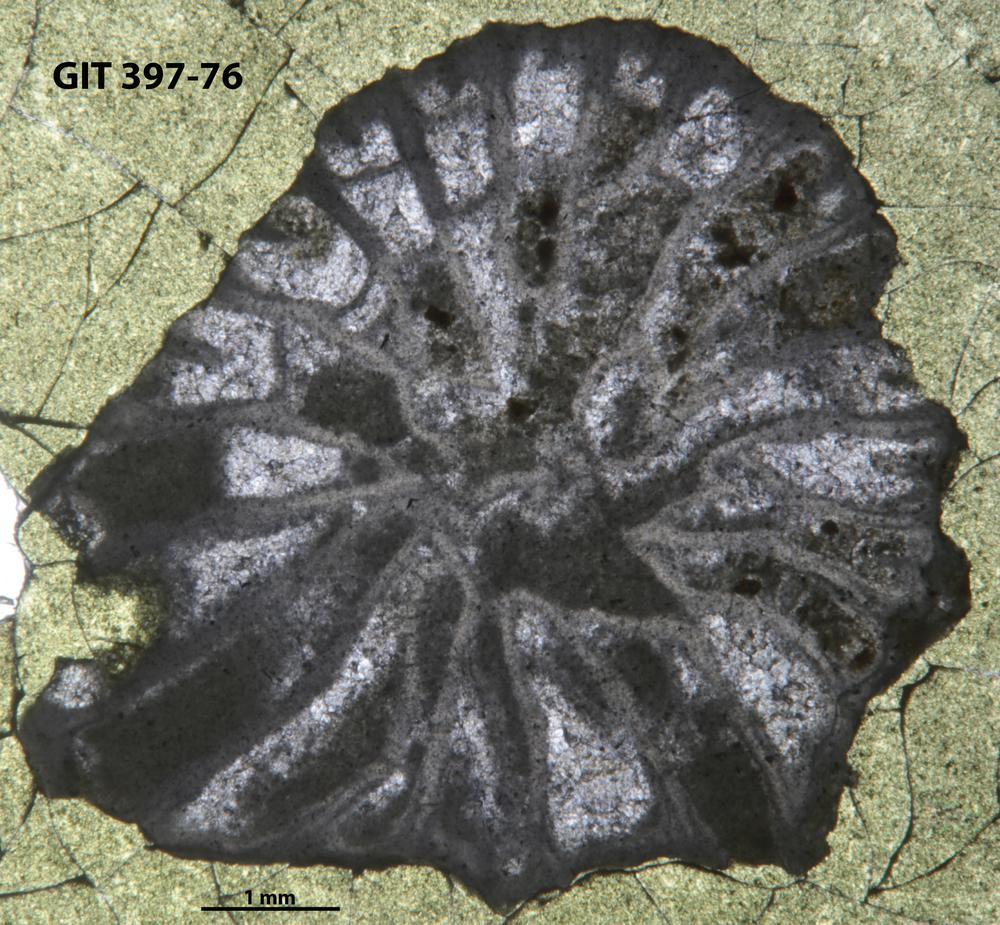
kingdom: Animalia
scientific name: Animalia
